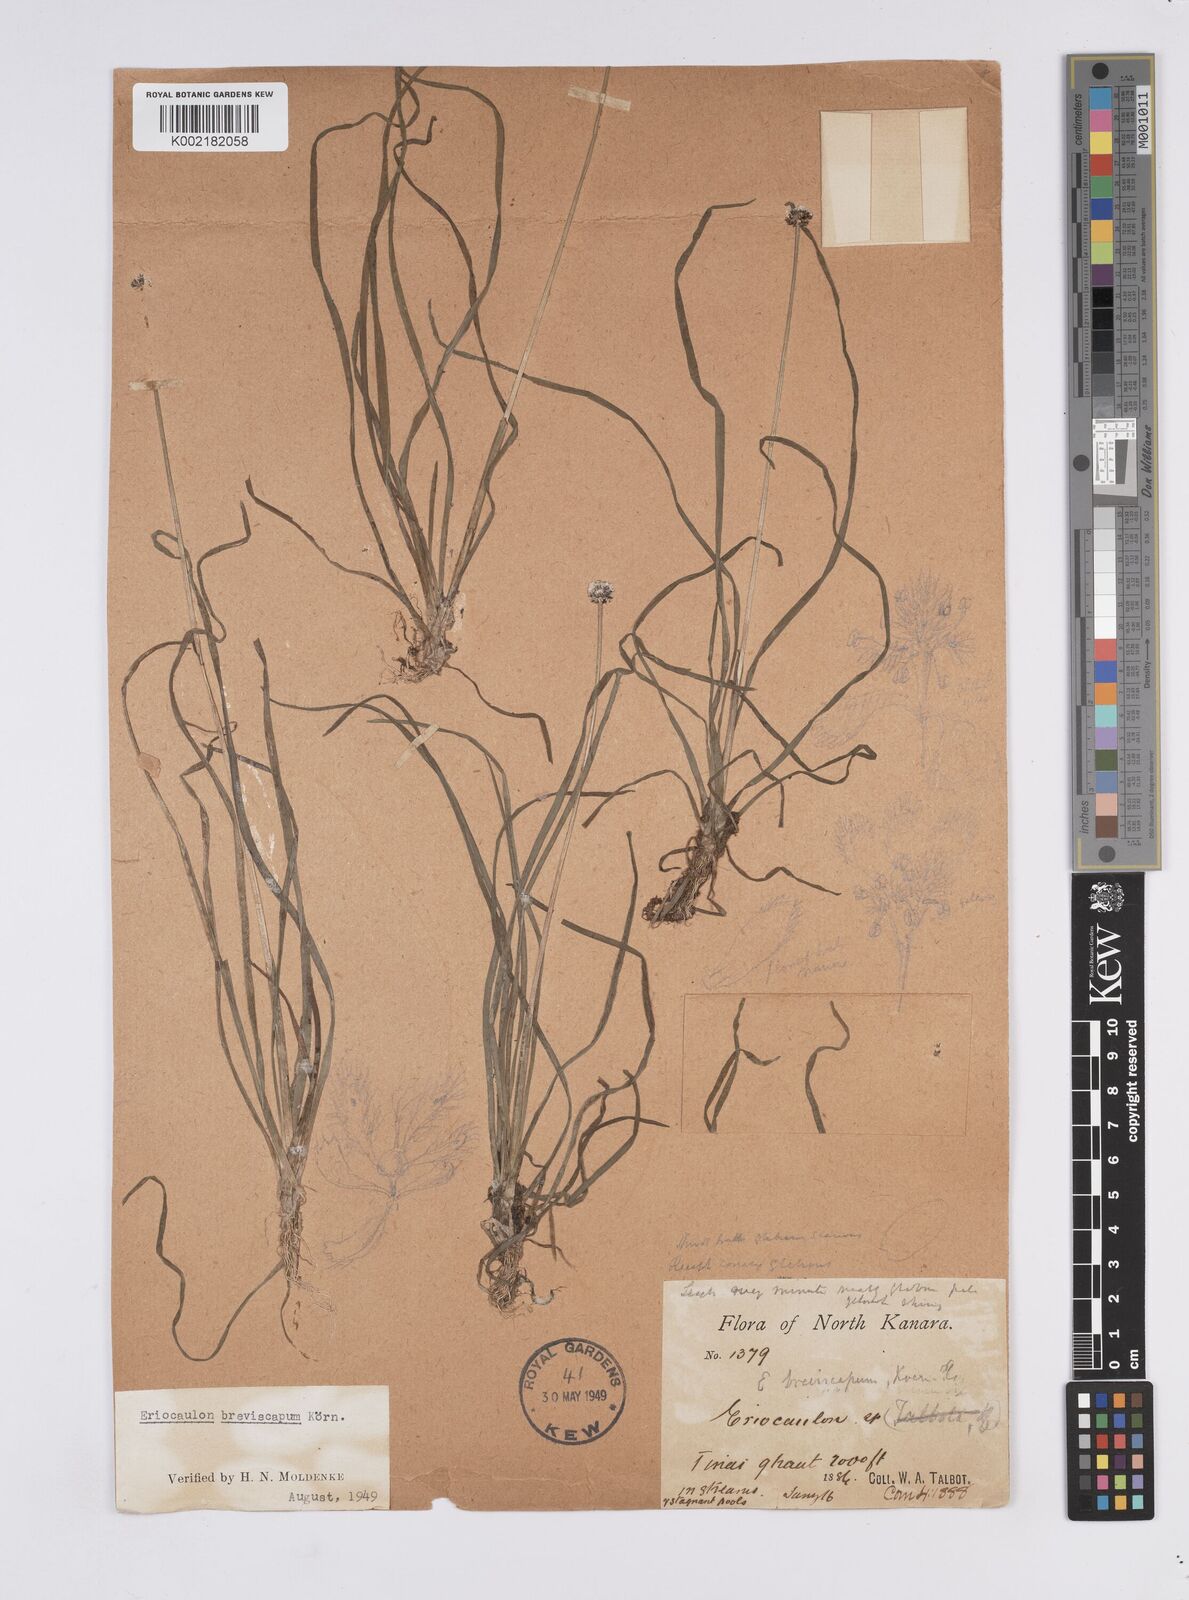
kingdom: Plantae
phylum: Tracheophyta
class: Liliopsida
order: Poales
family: Eriocaulaceae
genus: Eriocaulon
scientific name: Eriocaulon breviscapum
